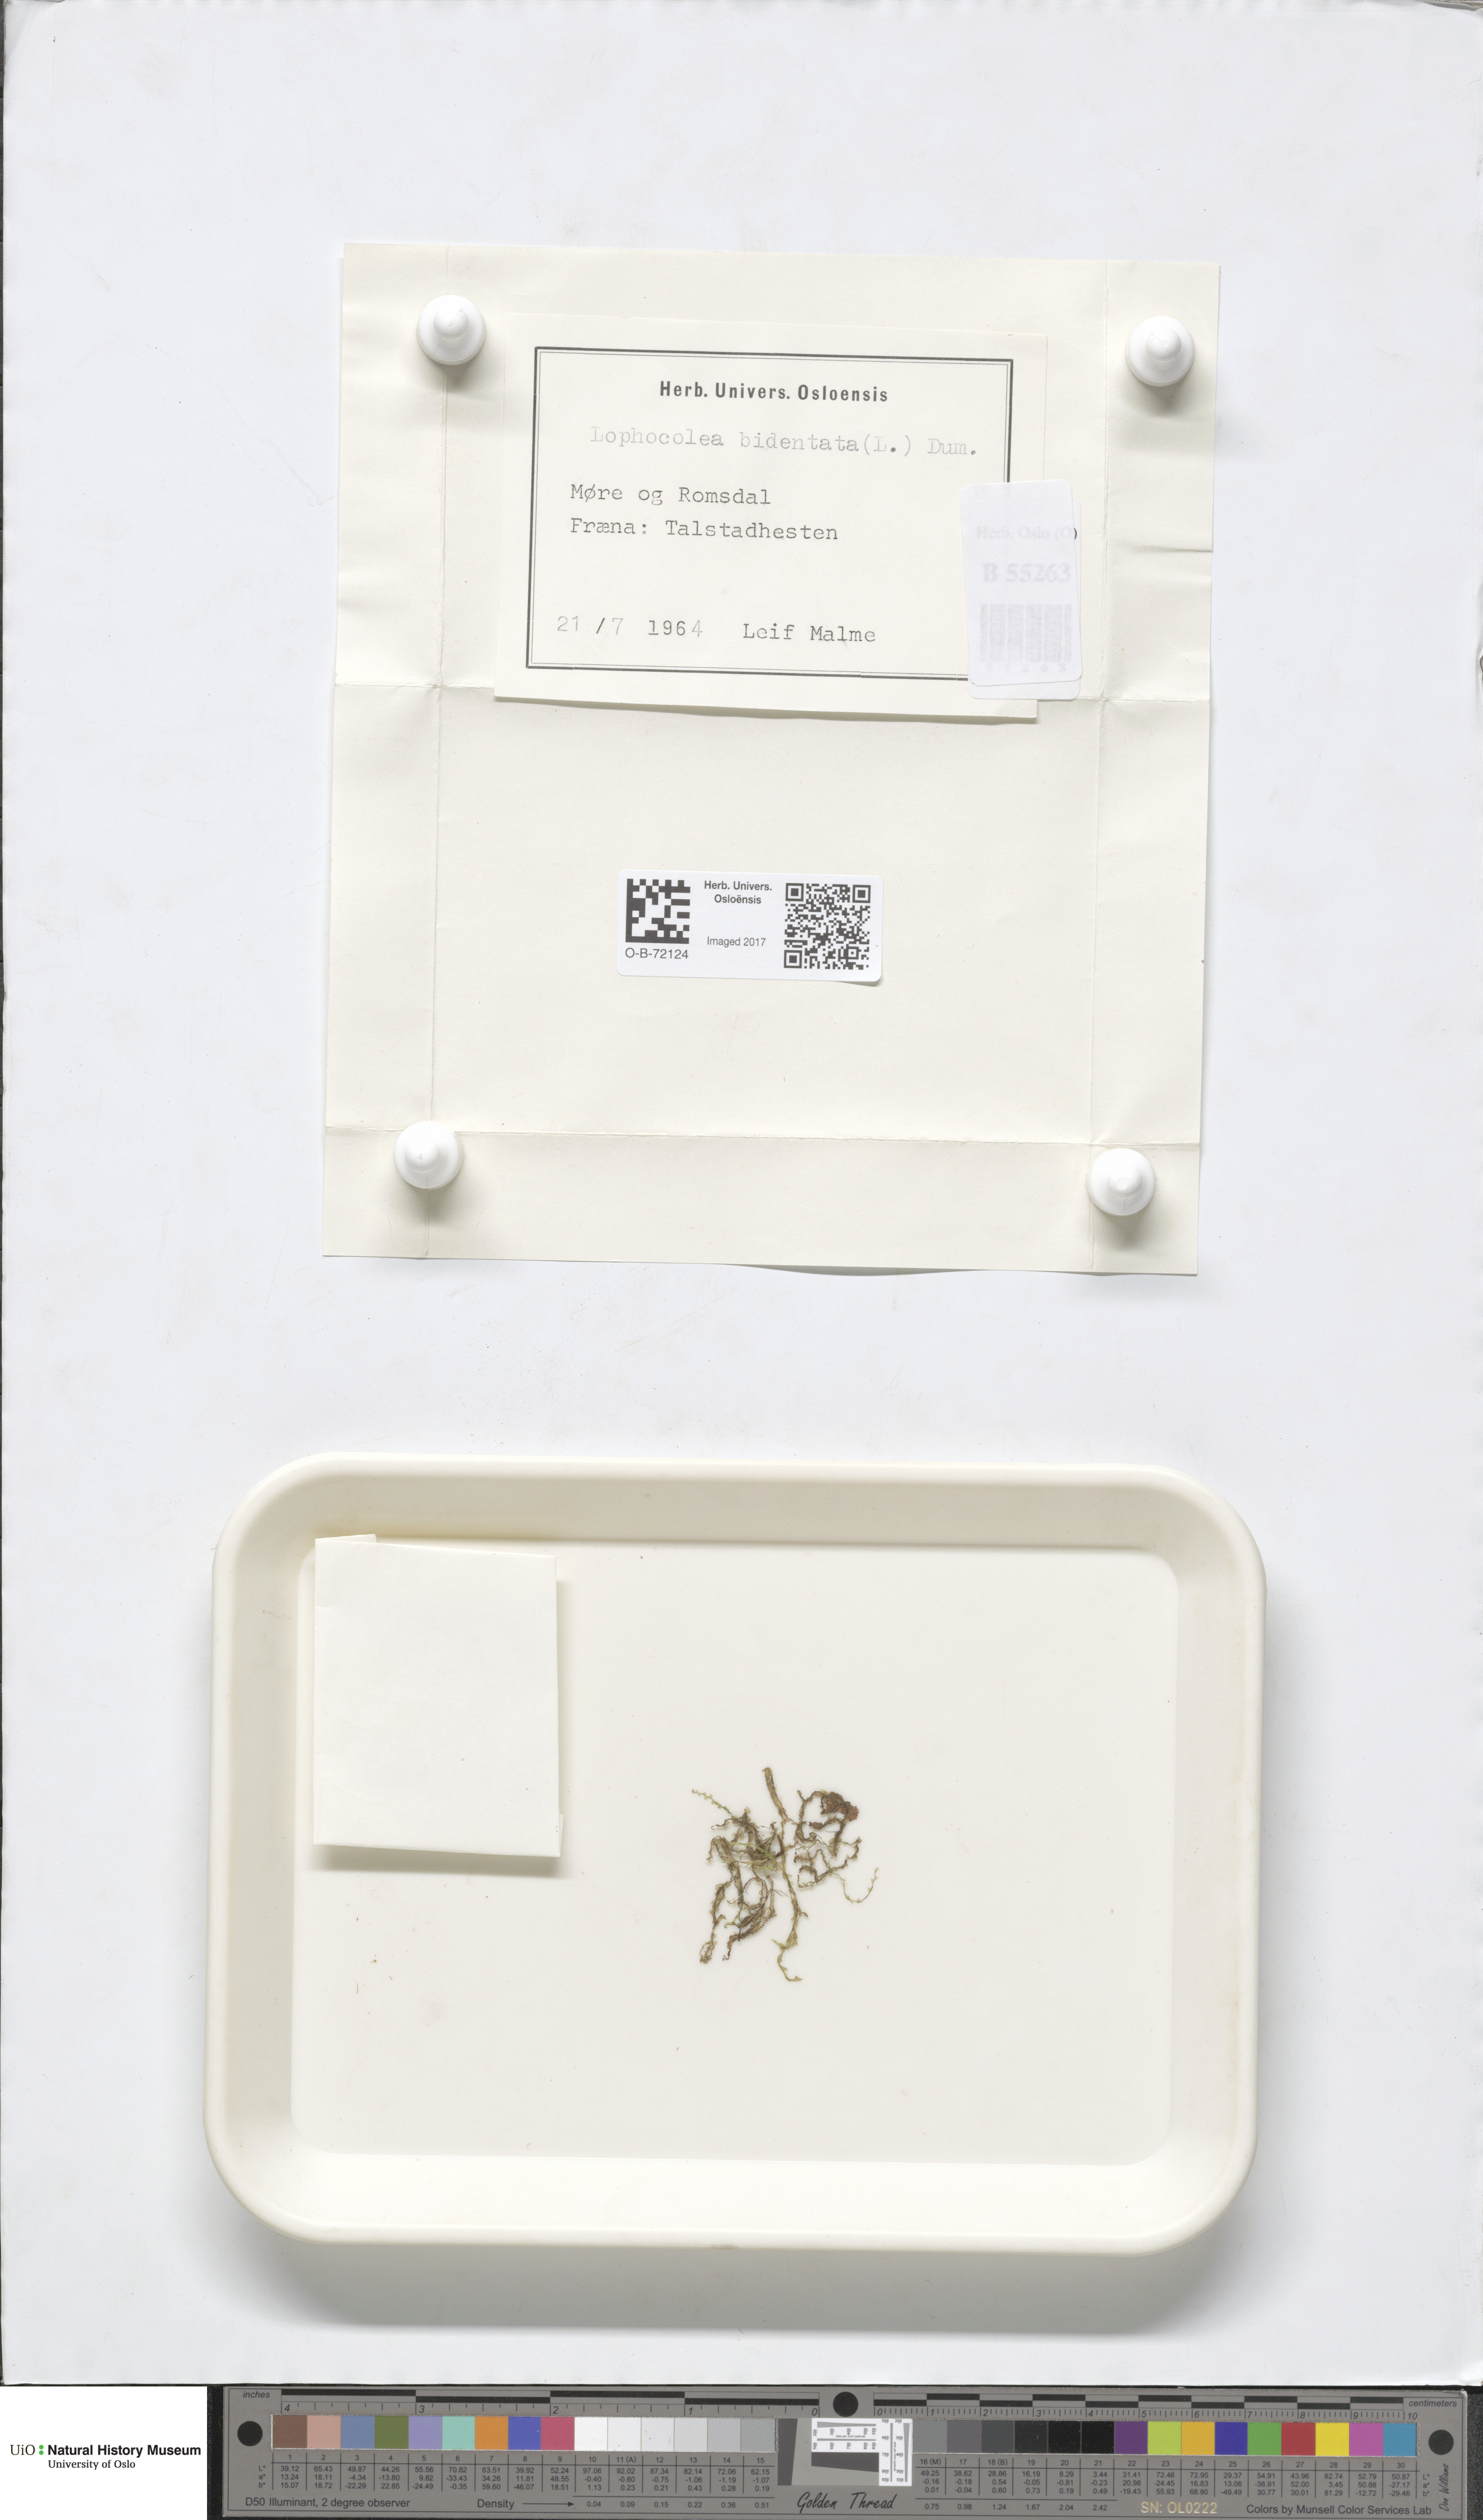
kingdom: Plantae
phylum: Marchantiophyta
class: Jungermanniopsida
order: Jungermanniales
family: Lophocoleaceae
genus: Lophocolea
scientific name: Lophocolea bidentata
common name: Bifid crestwort
